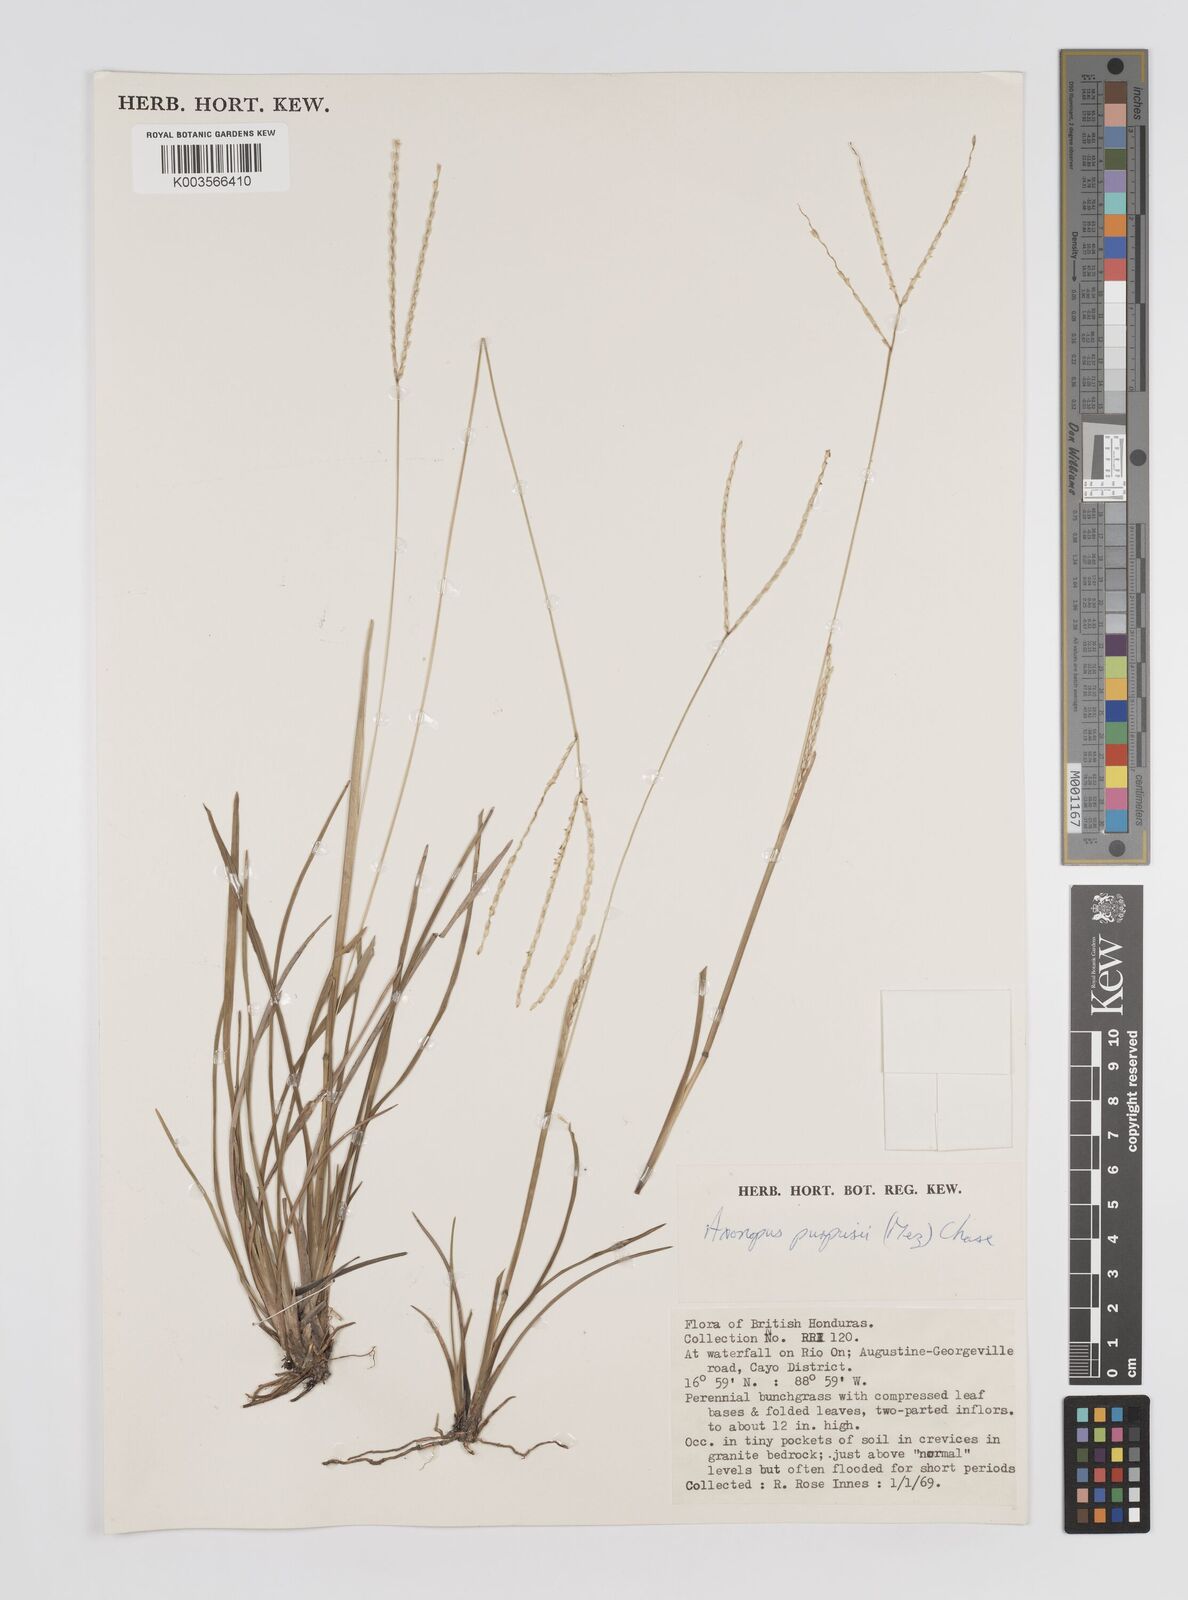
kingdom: Plantae
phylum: Tracheophyta
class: Liliopsida
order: Poales
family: Poaceae
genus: Axonopus
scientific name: Axonopus purpusii
